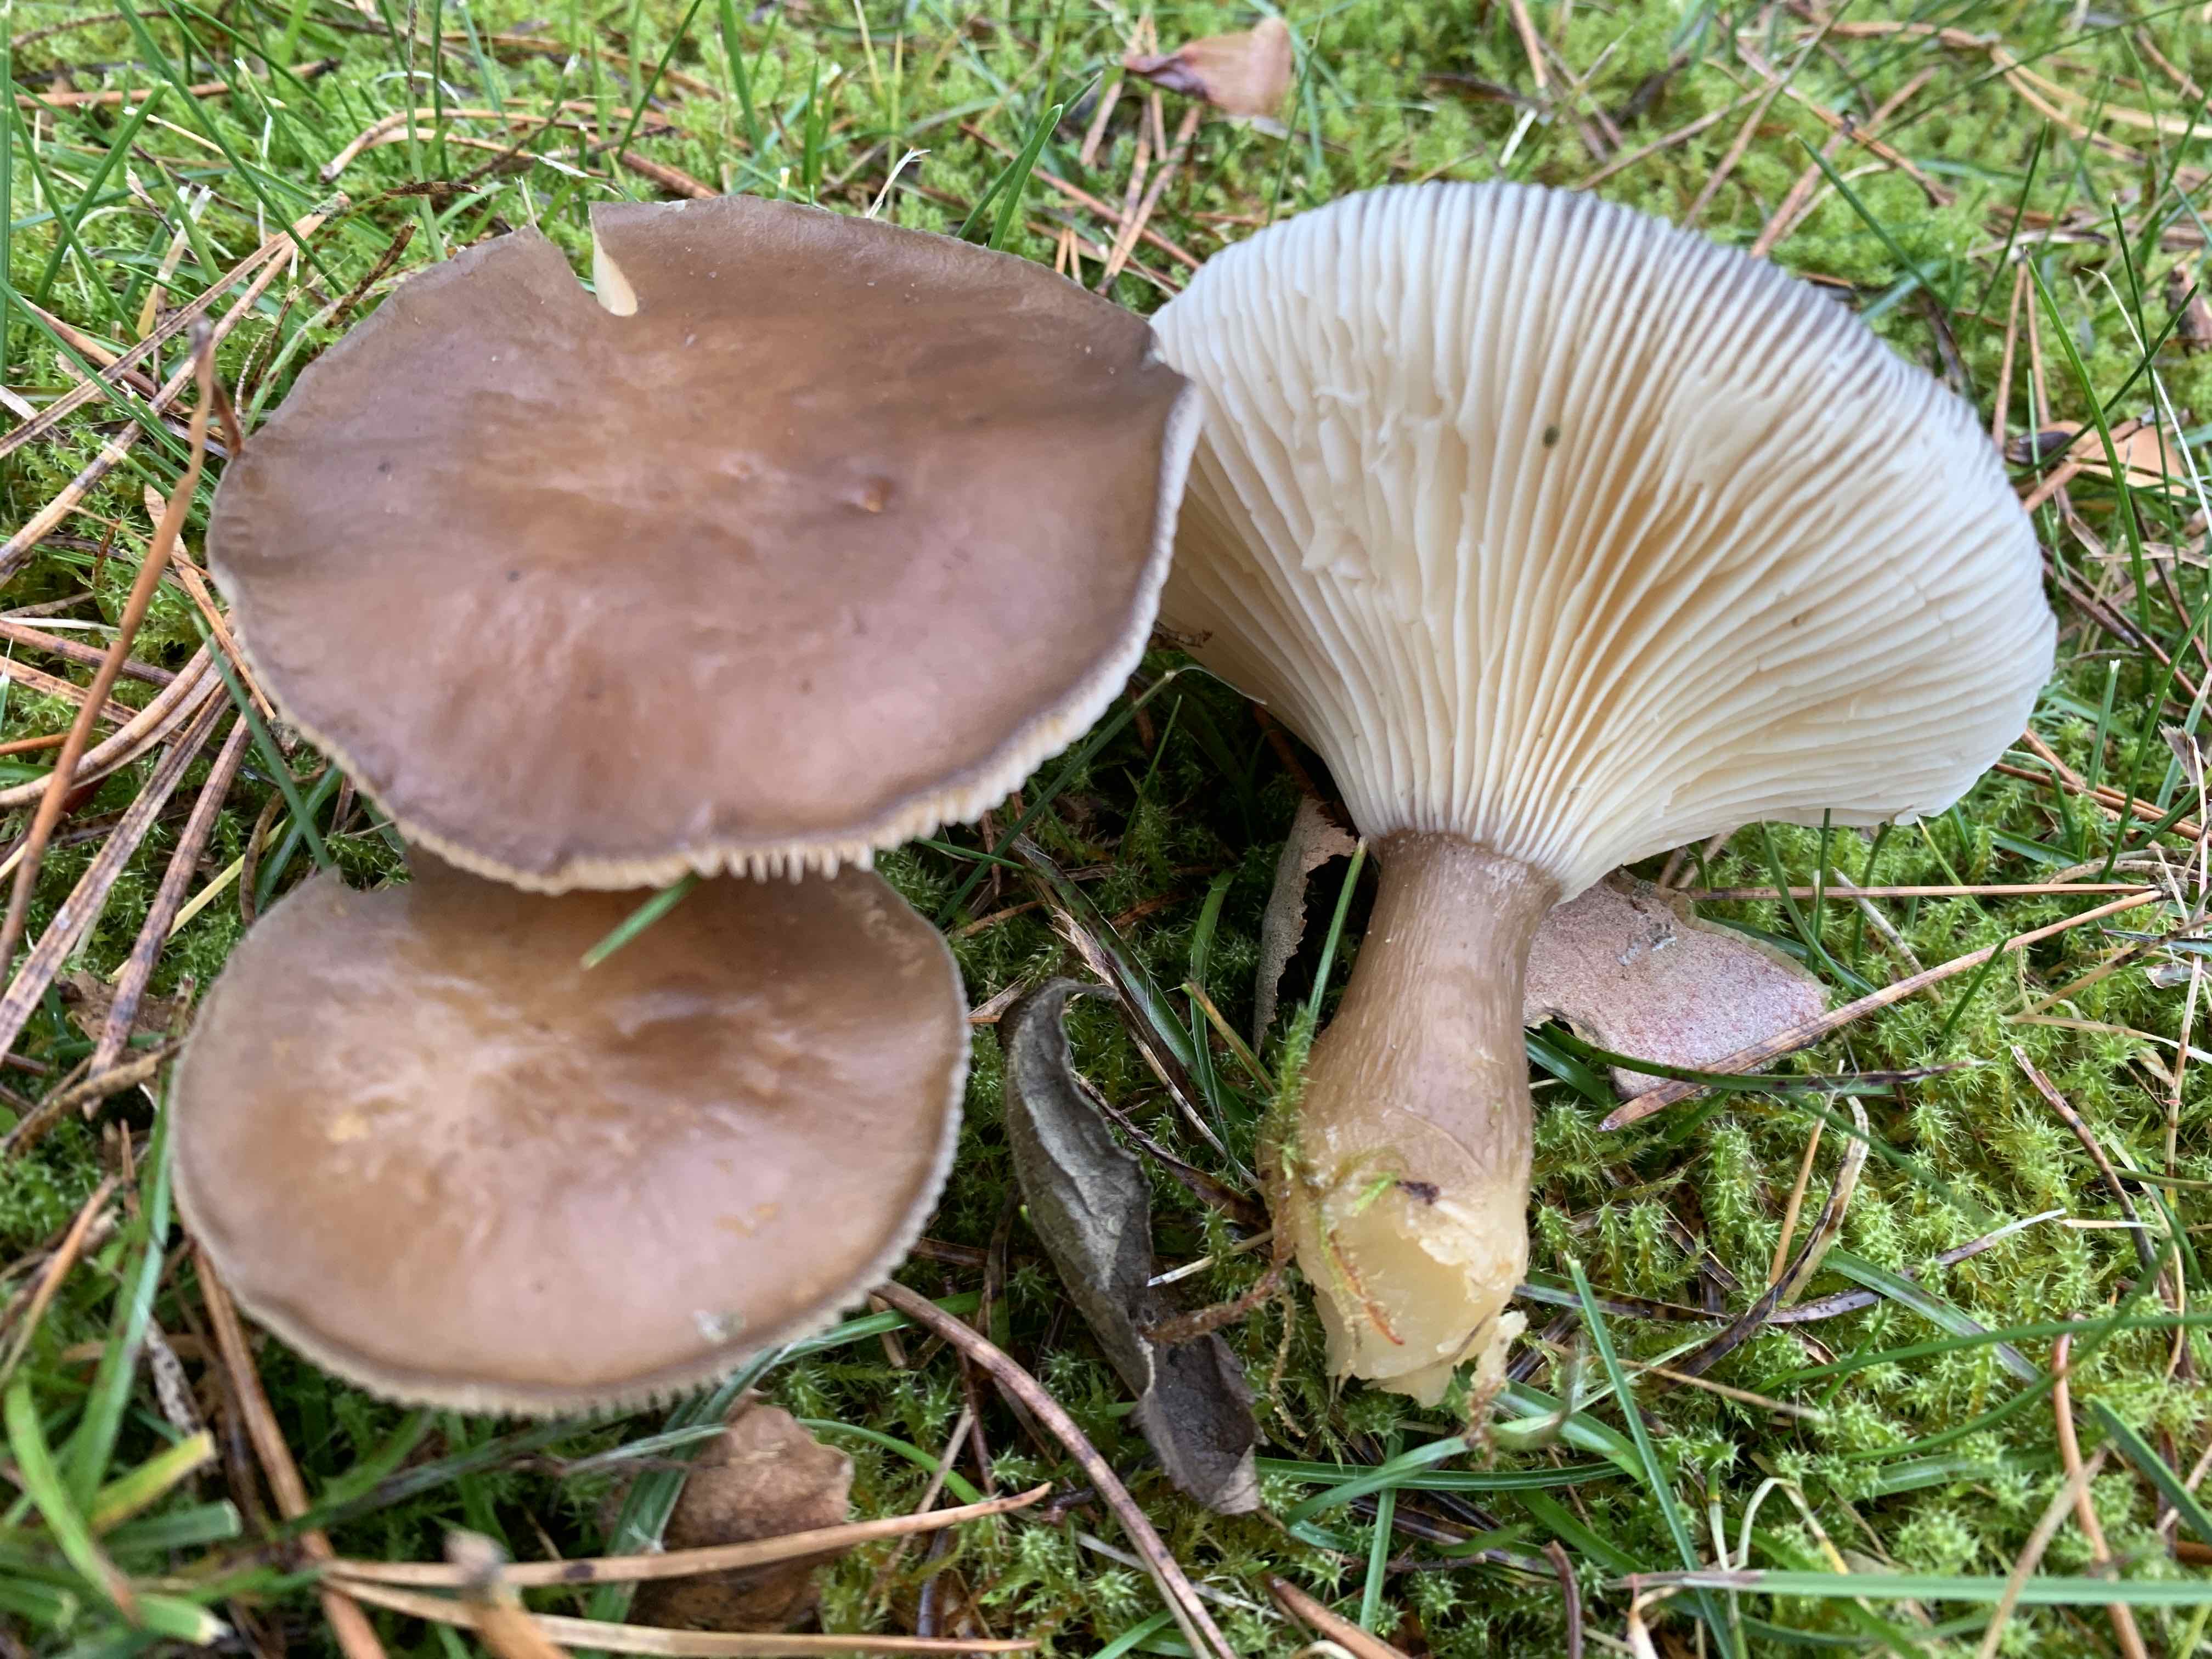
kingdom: Fungi
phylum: Basidiomycota
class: Agaricomycetes
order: Agaricales
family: Hygrophoraceae
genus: Ampulloclitocybe
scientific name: Ampulloclitocybe clavipes
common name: køllefod
